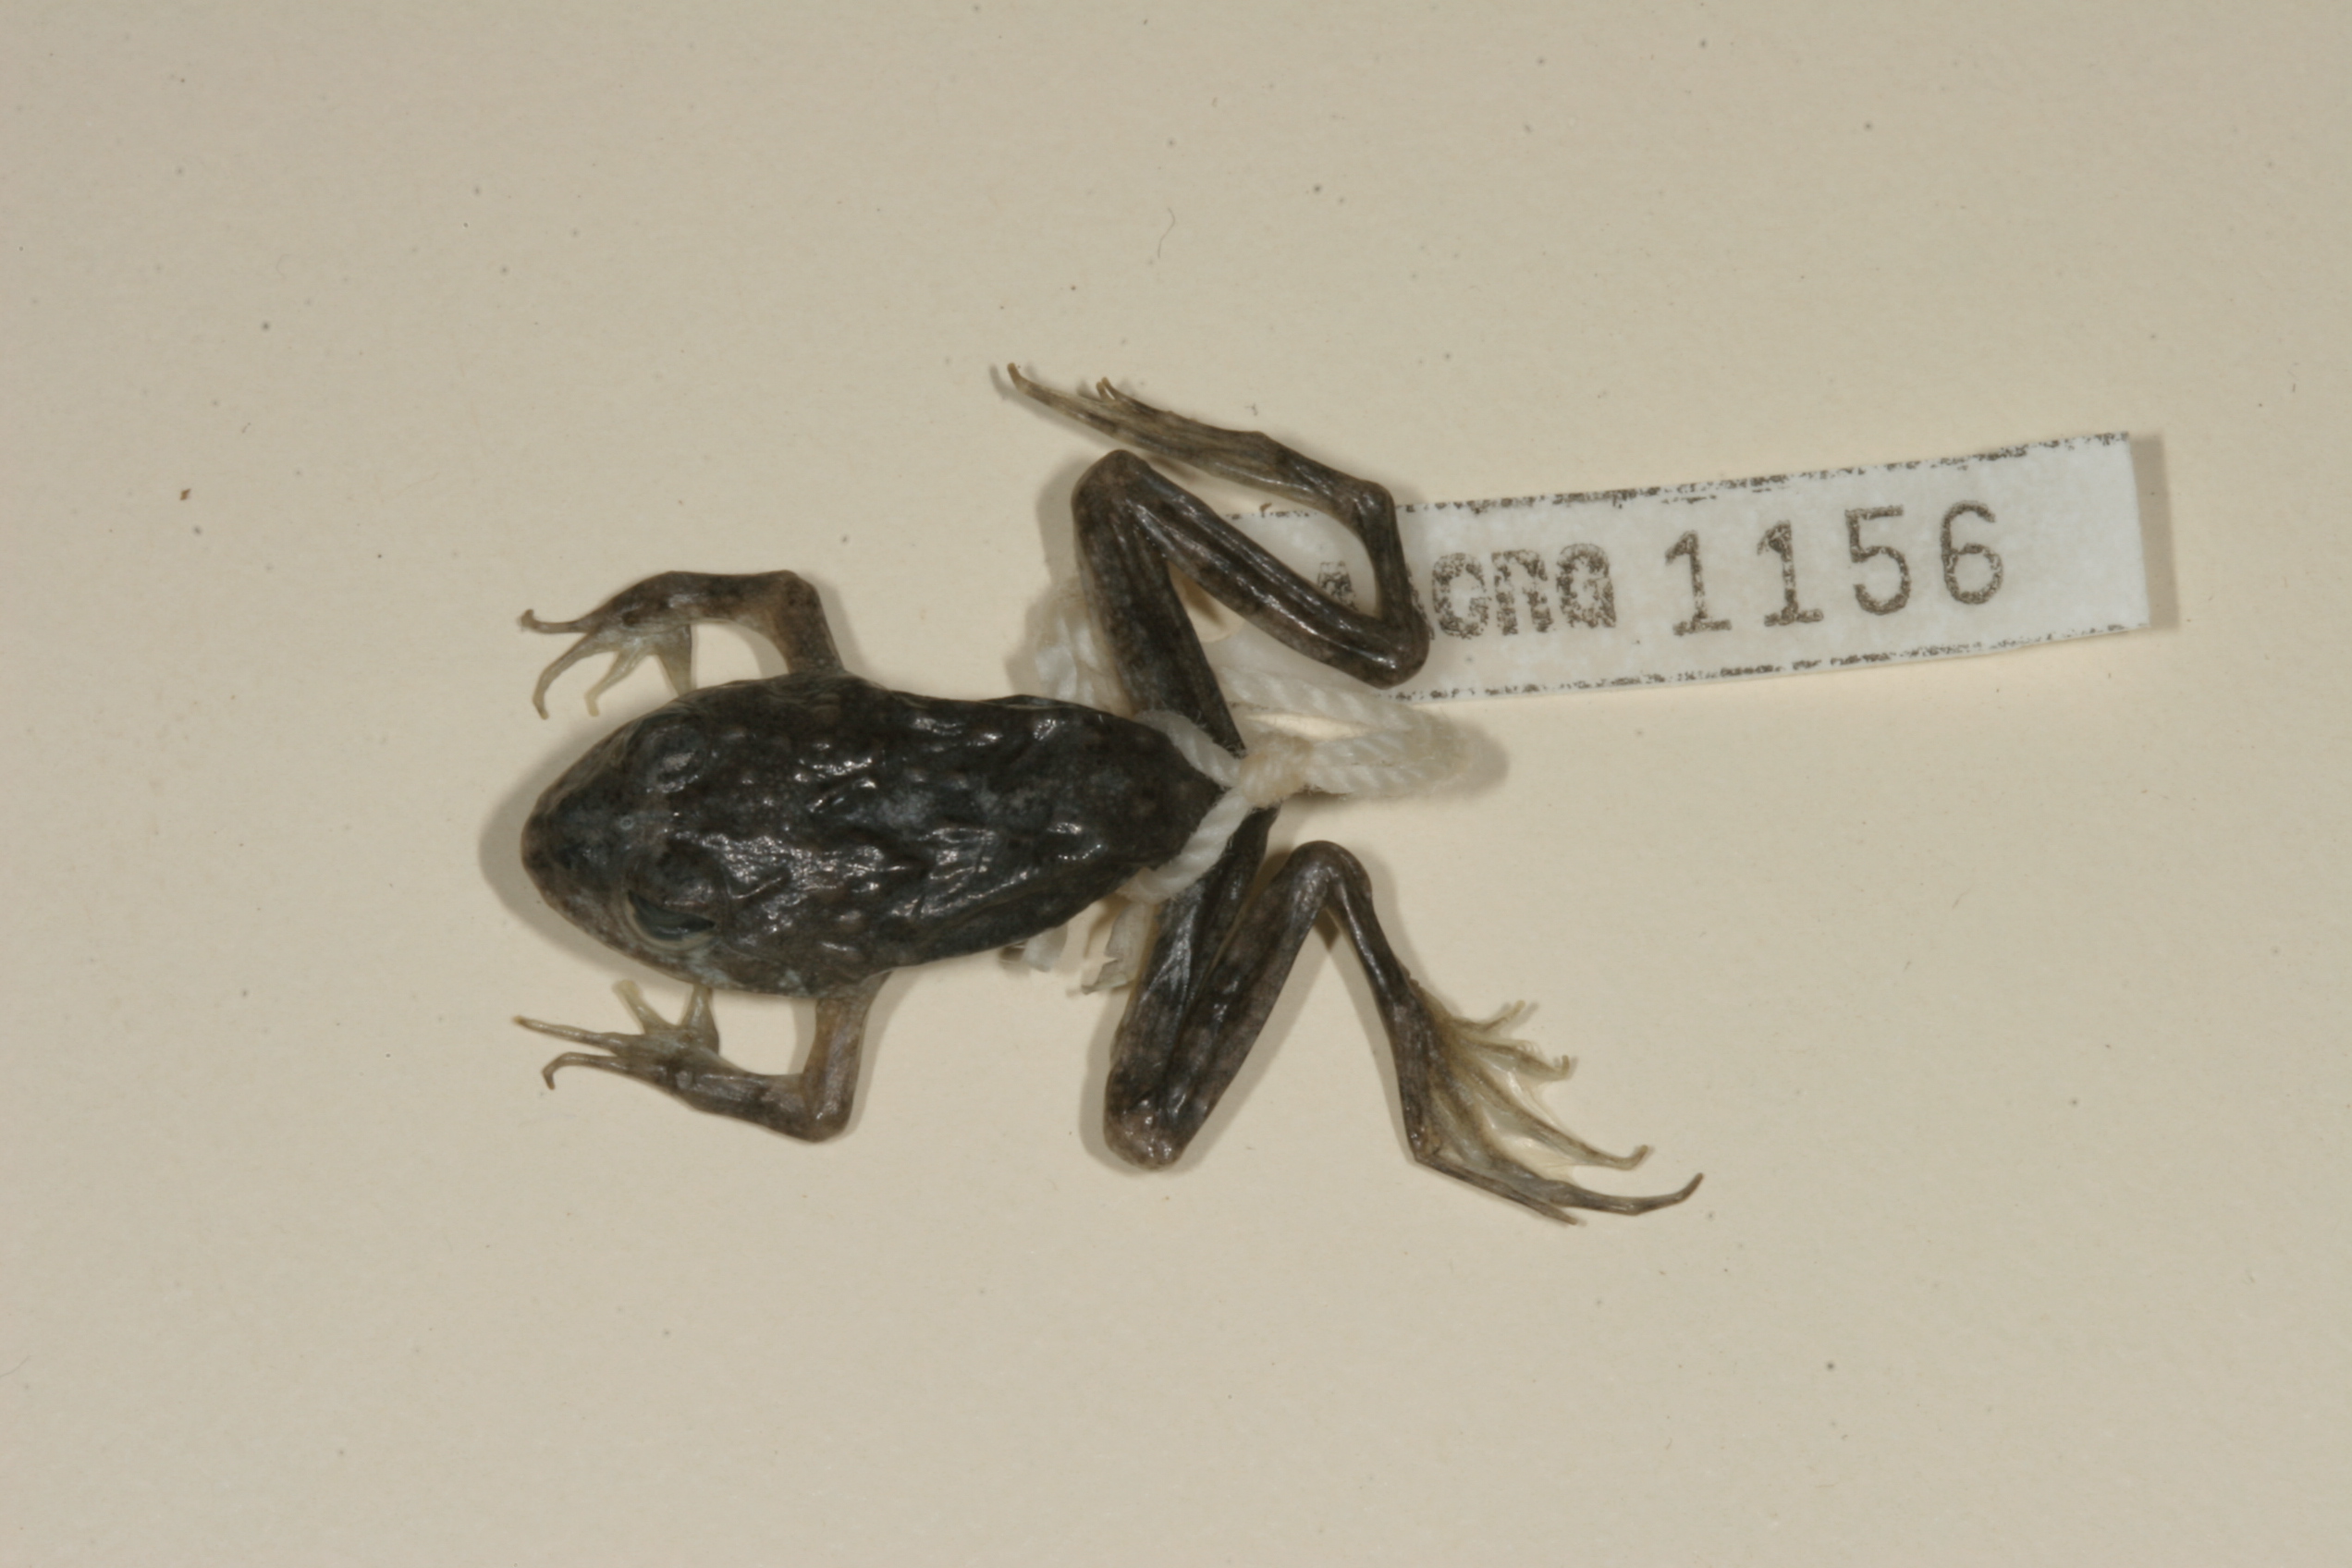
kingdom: Animalia
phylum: Chordata
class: Amphibia
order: Anura
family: Pyxicephalidae
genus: Amietia
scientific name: Amietia vertebralis
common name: Drakensberg stream frog
